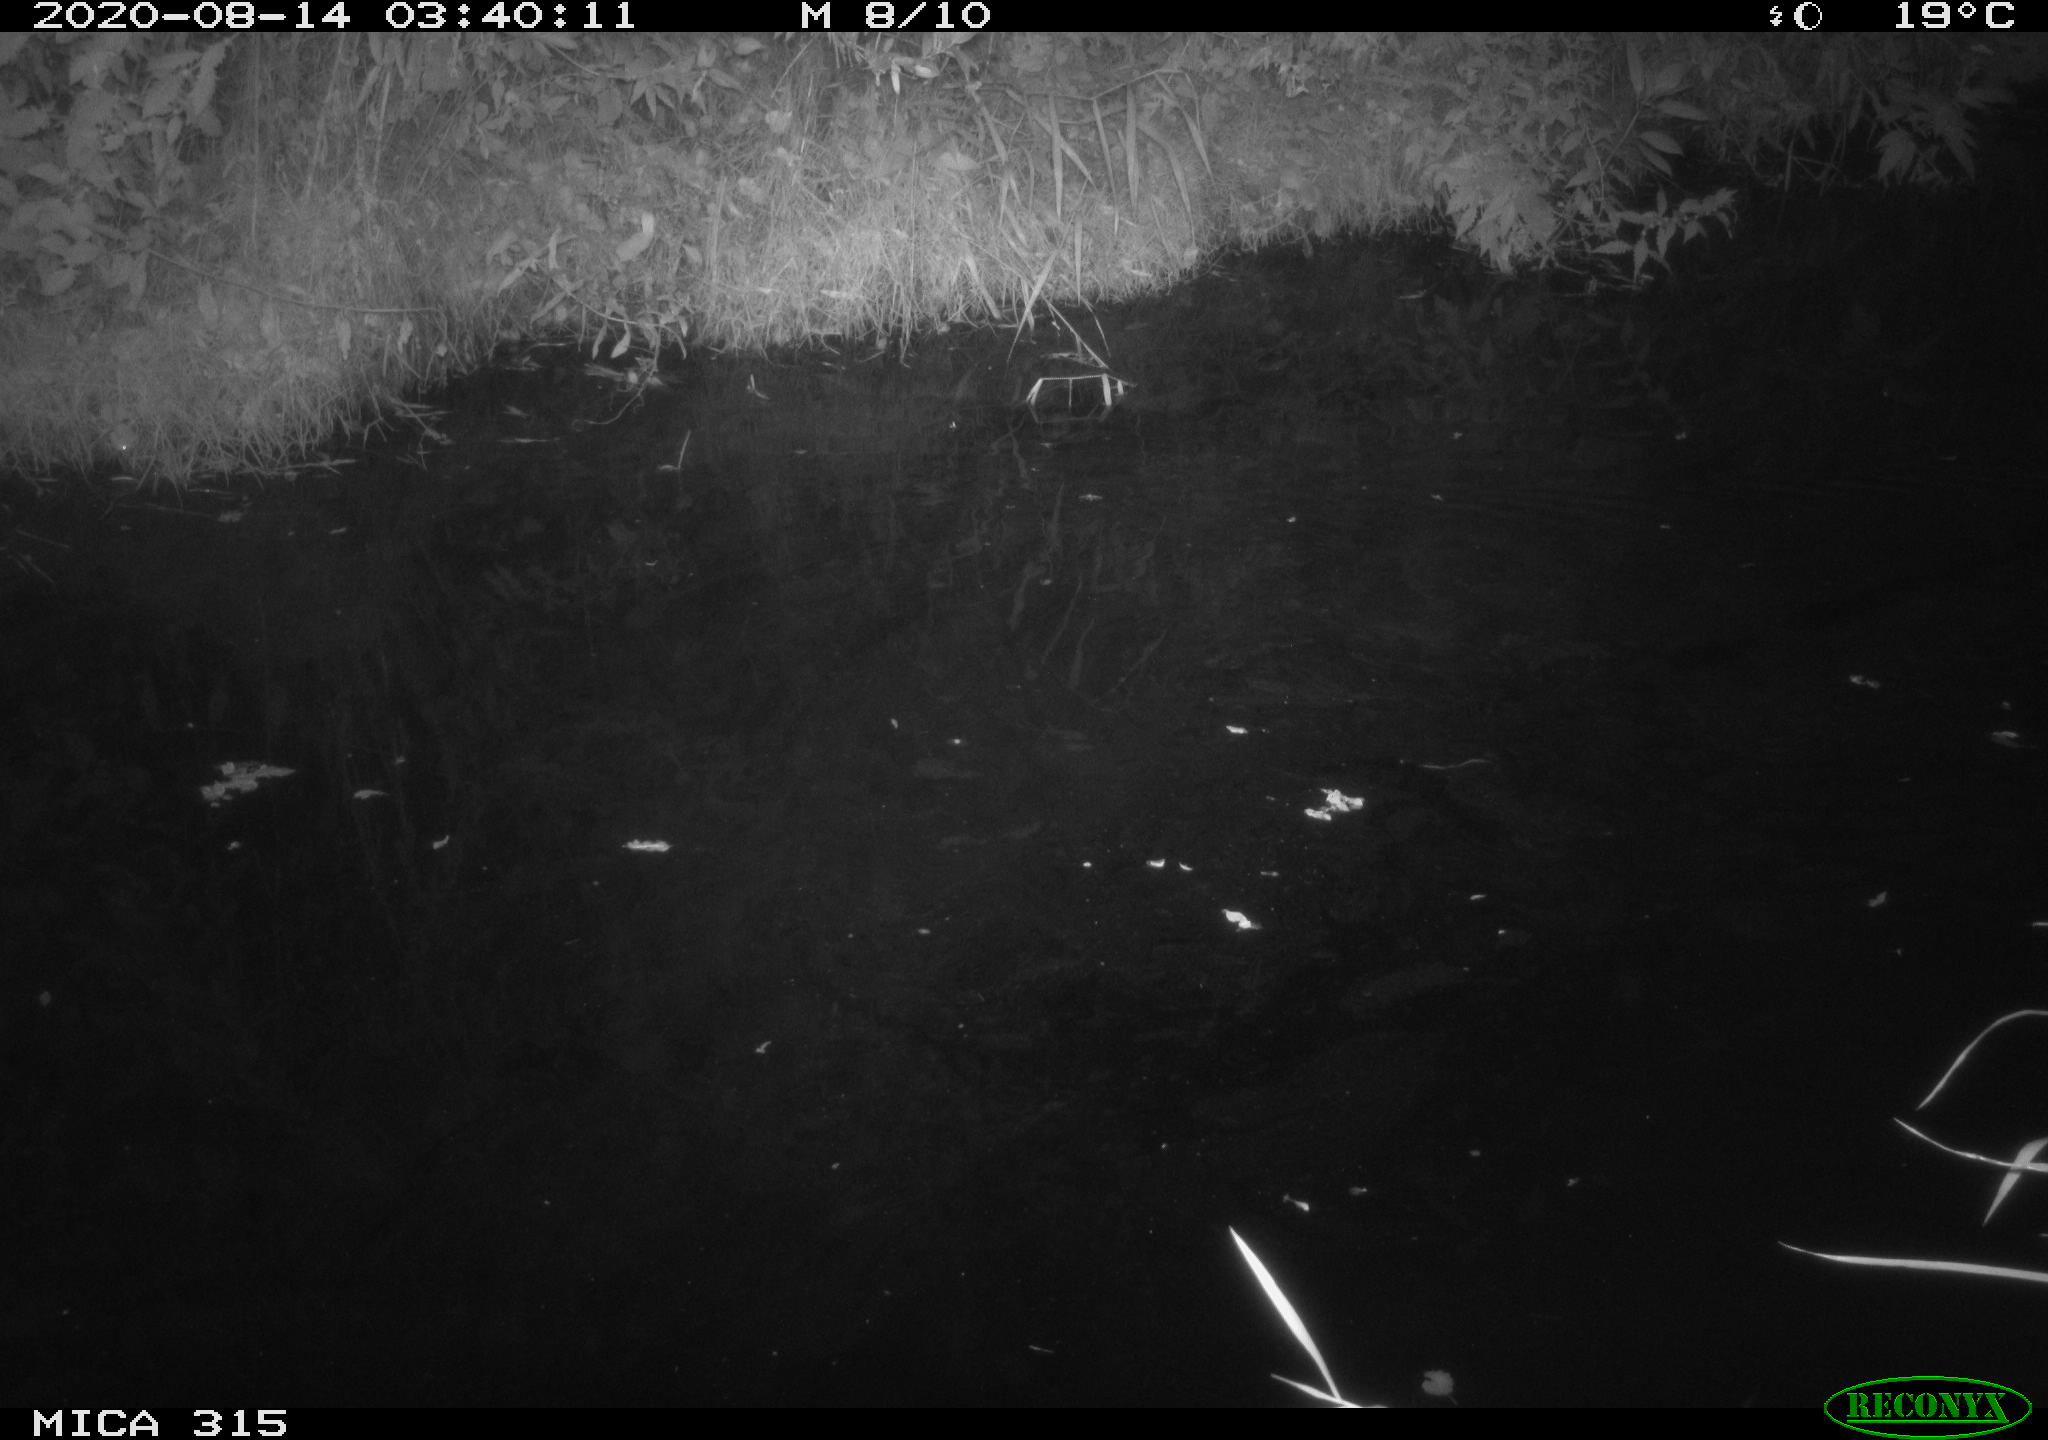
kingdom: Animalia
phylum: Chordata
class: Aves
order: Anseriformes
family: Anatidae
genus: Anas
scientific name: Anas platyrhynchos
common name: Mallard
